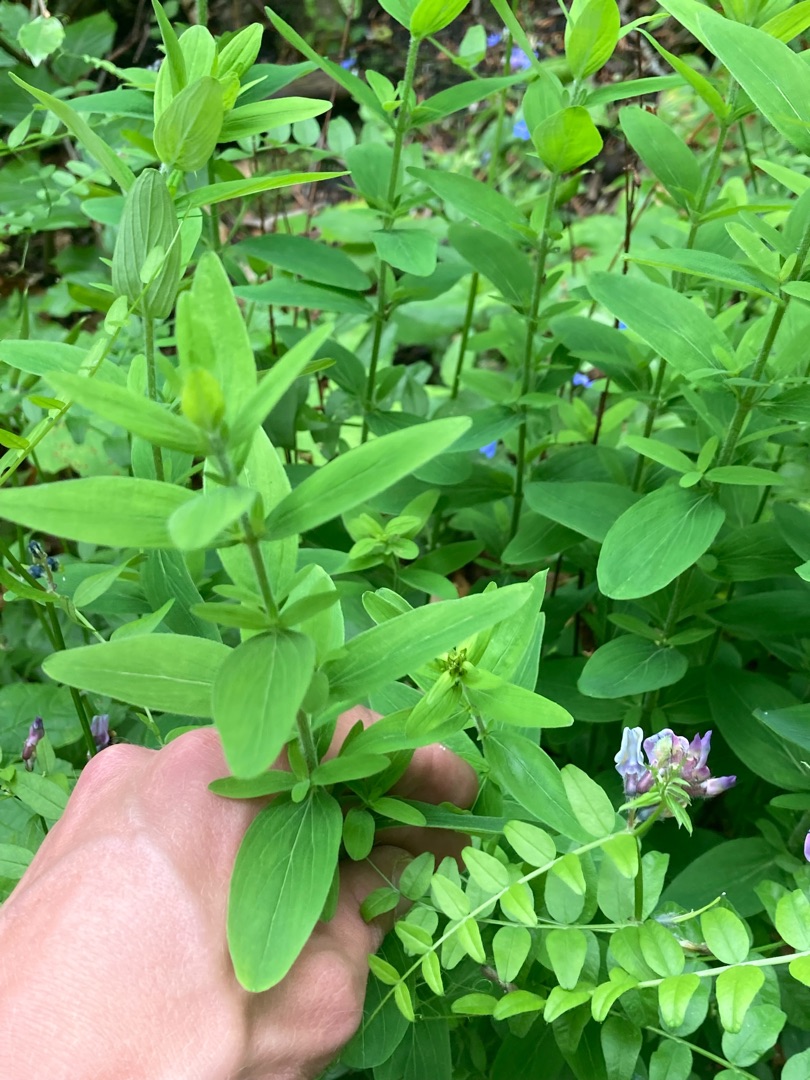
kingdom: Plantae
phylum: Tracheophyta
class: Magnoliopsida
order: Malpighiales
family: Hypericaceae
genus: Hypericum
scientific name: Hypericum hirsutum
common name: Lådden perikon
